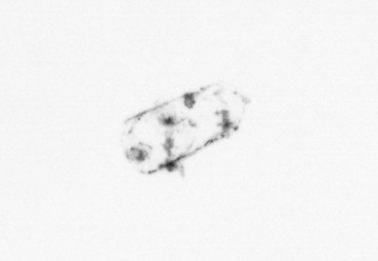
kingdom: Chromista
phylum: Ochrophyta
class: Bacillariophyceae
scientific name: Bacillariophyceae
